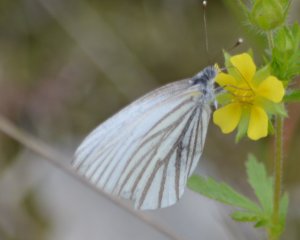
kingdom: Animalia
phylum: Arthropoda
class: Insecta
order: Lepidoptera
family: Pieridae
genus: Pieris
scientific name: Pieris oleracea
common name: Mustard White
